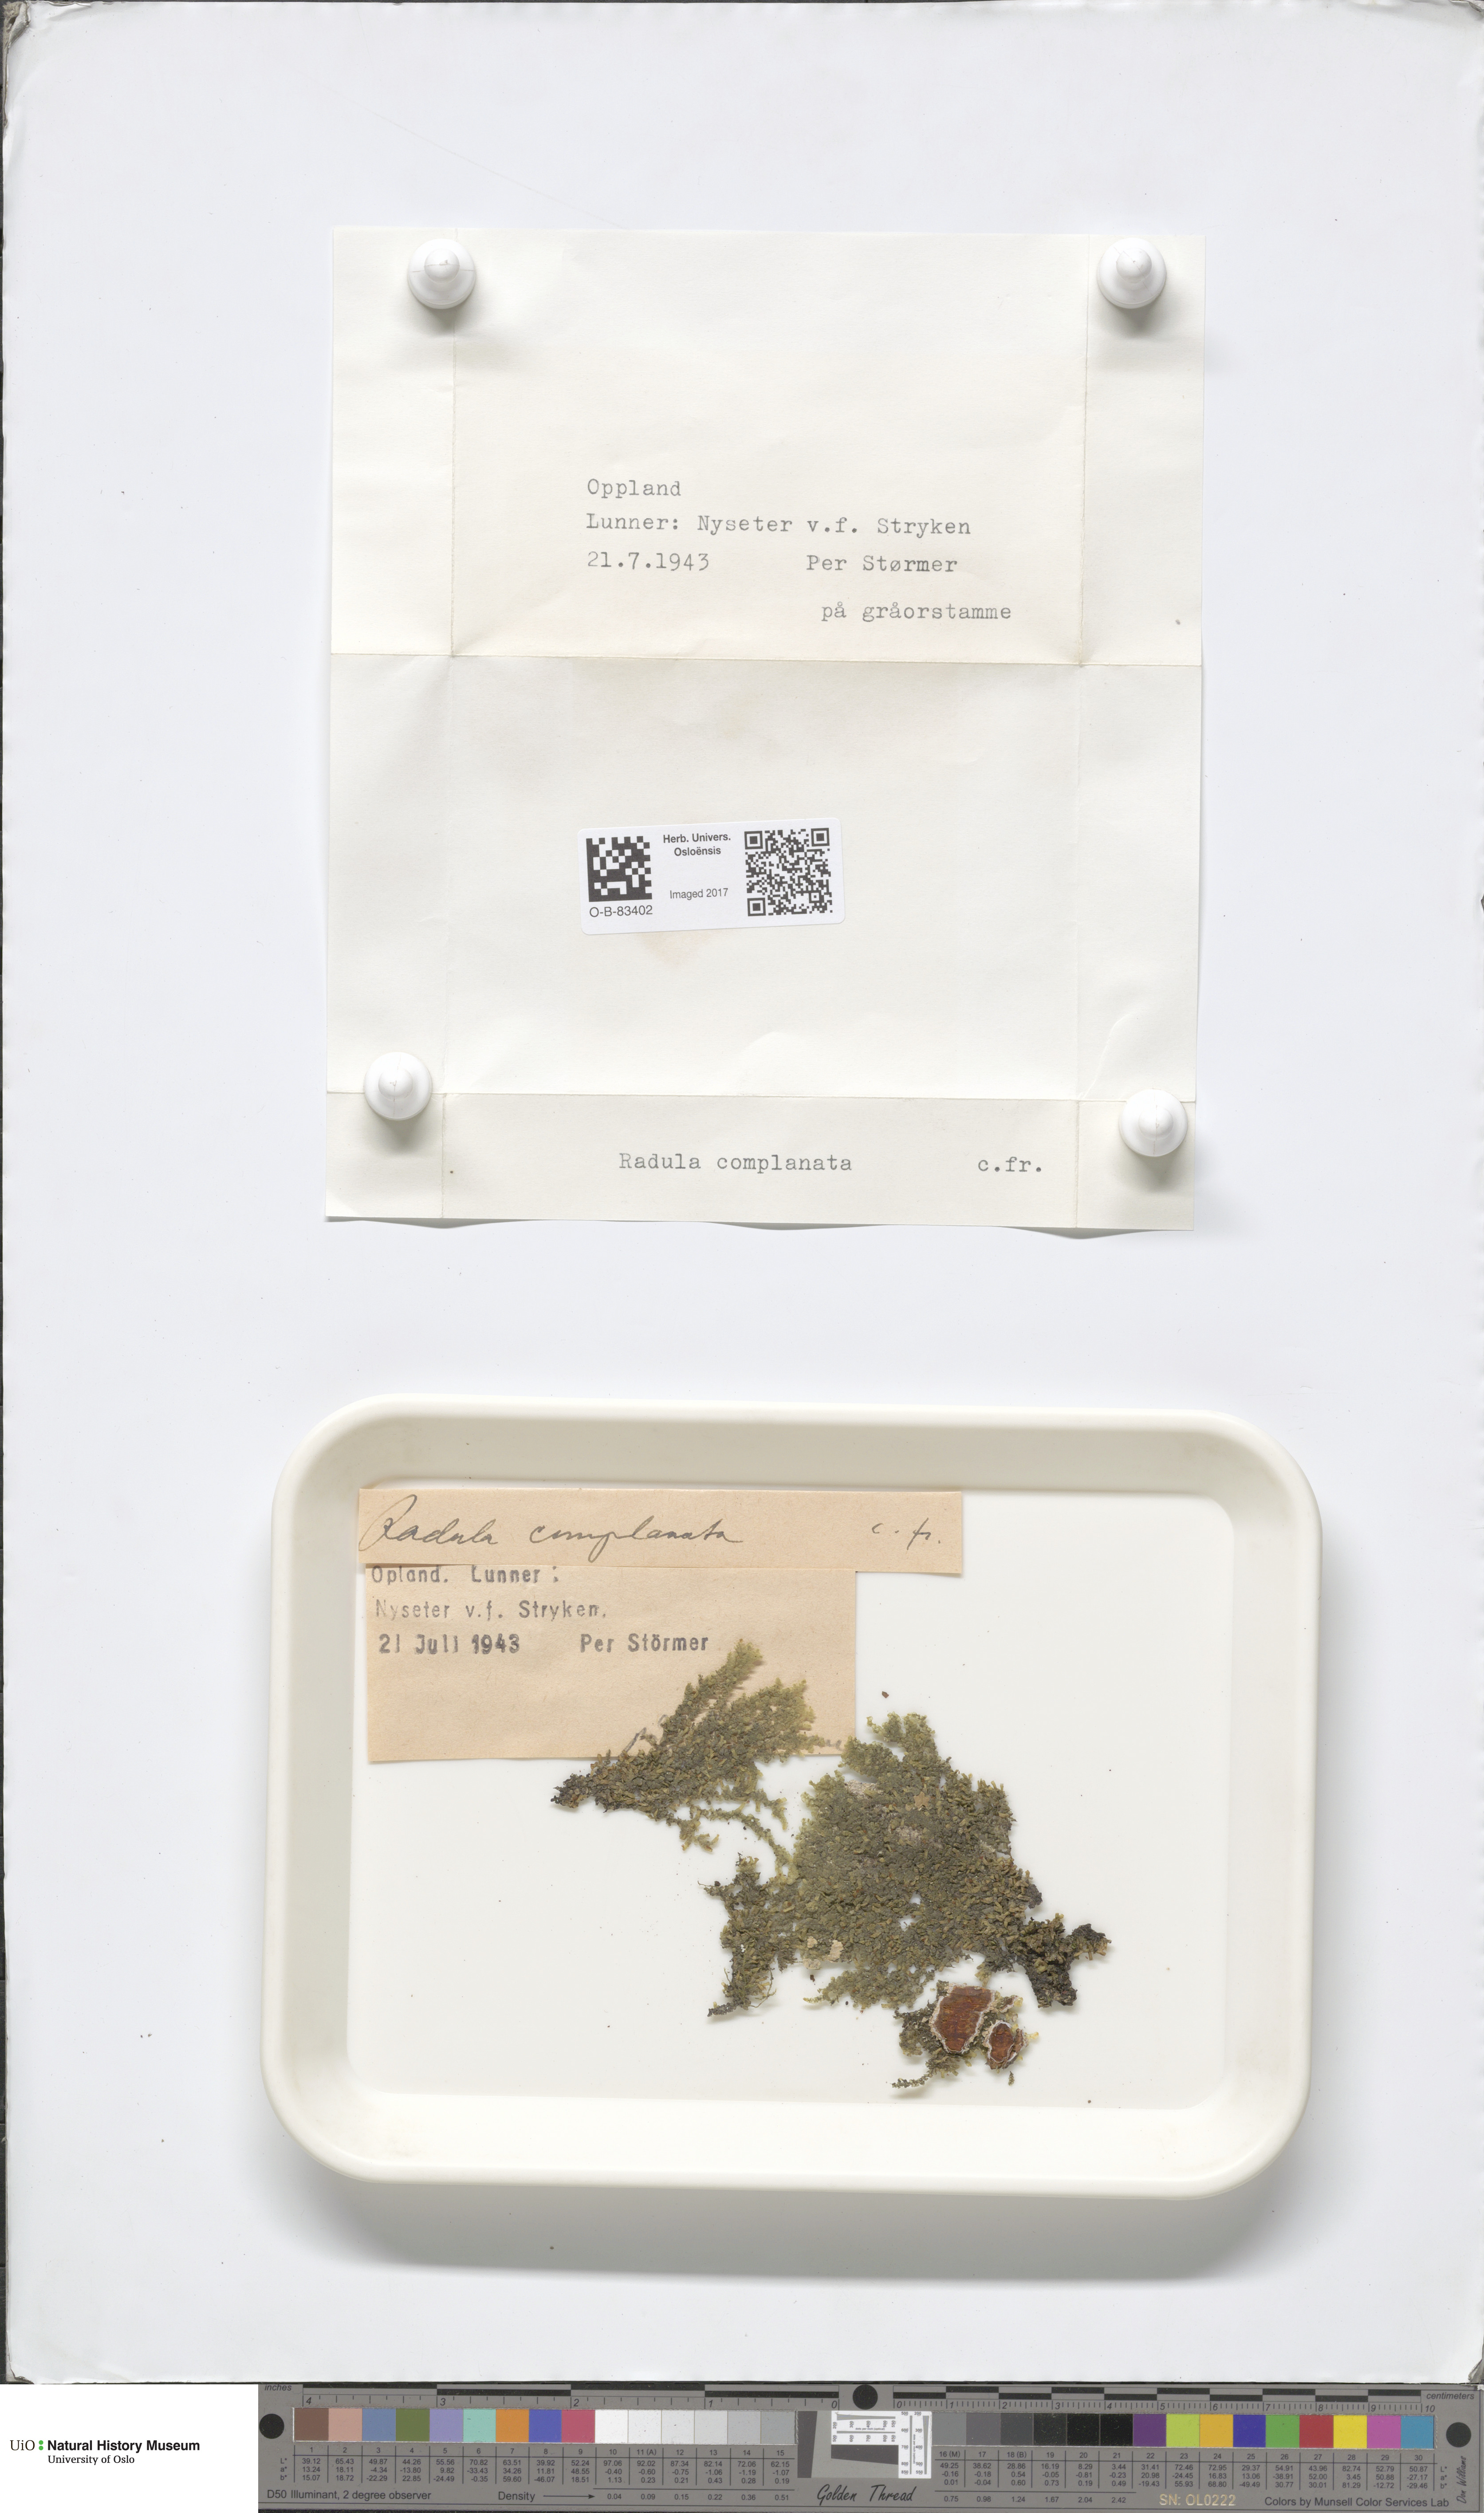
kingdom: Plantae
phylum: Marchantiophyta
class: Jungermanniopsida
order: Porellales
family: Radulaceae
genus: Radula
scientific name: Radula complanata
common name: Flat-leaved scalewort
